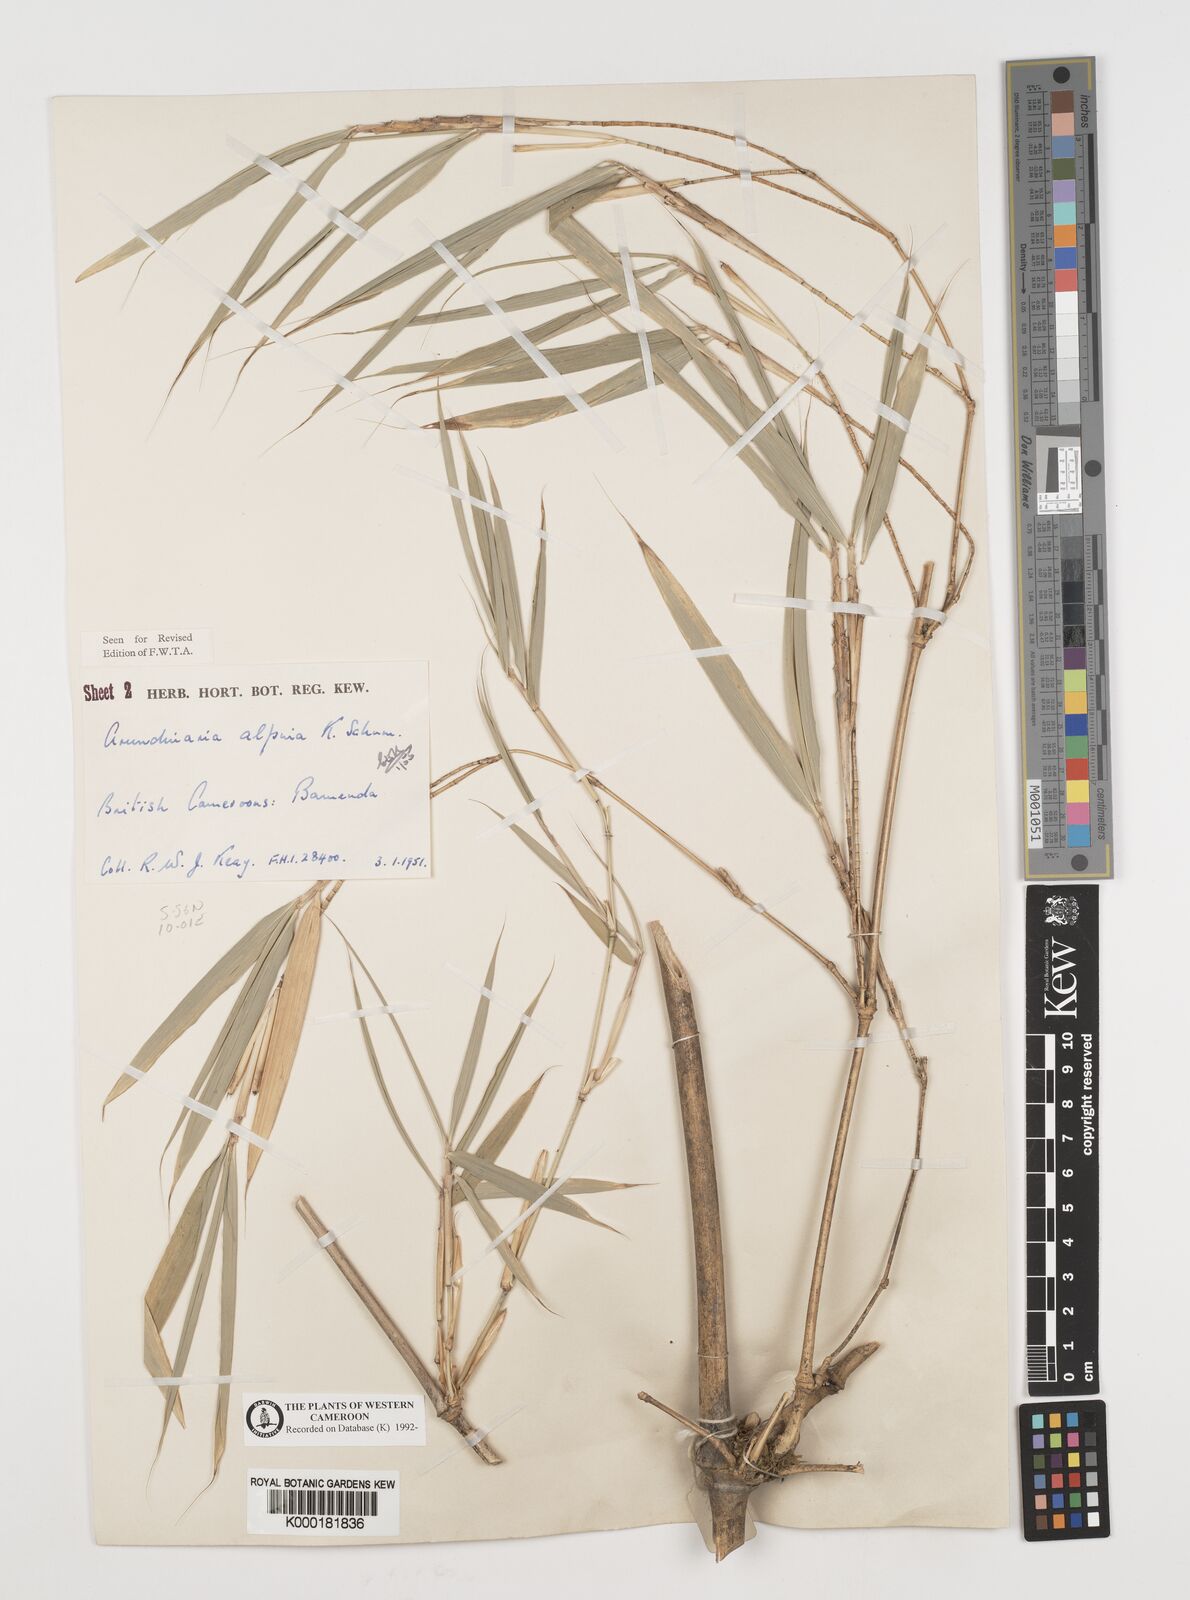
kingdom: Plantae
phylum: Tracheophyta
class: Liliopsida
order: Poales
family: Poaceae
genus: Fargesia
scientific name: Fargesia
